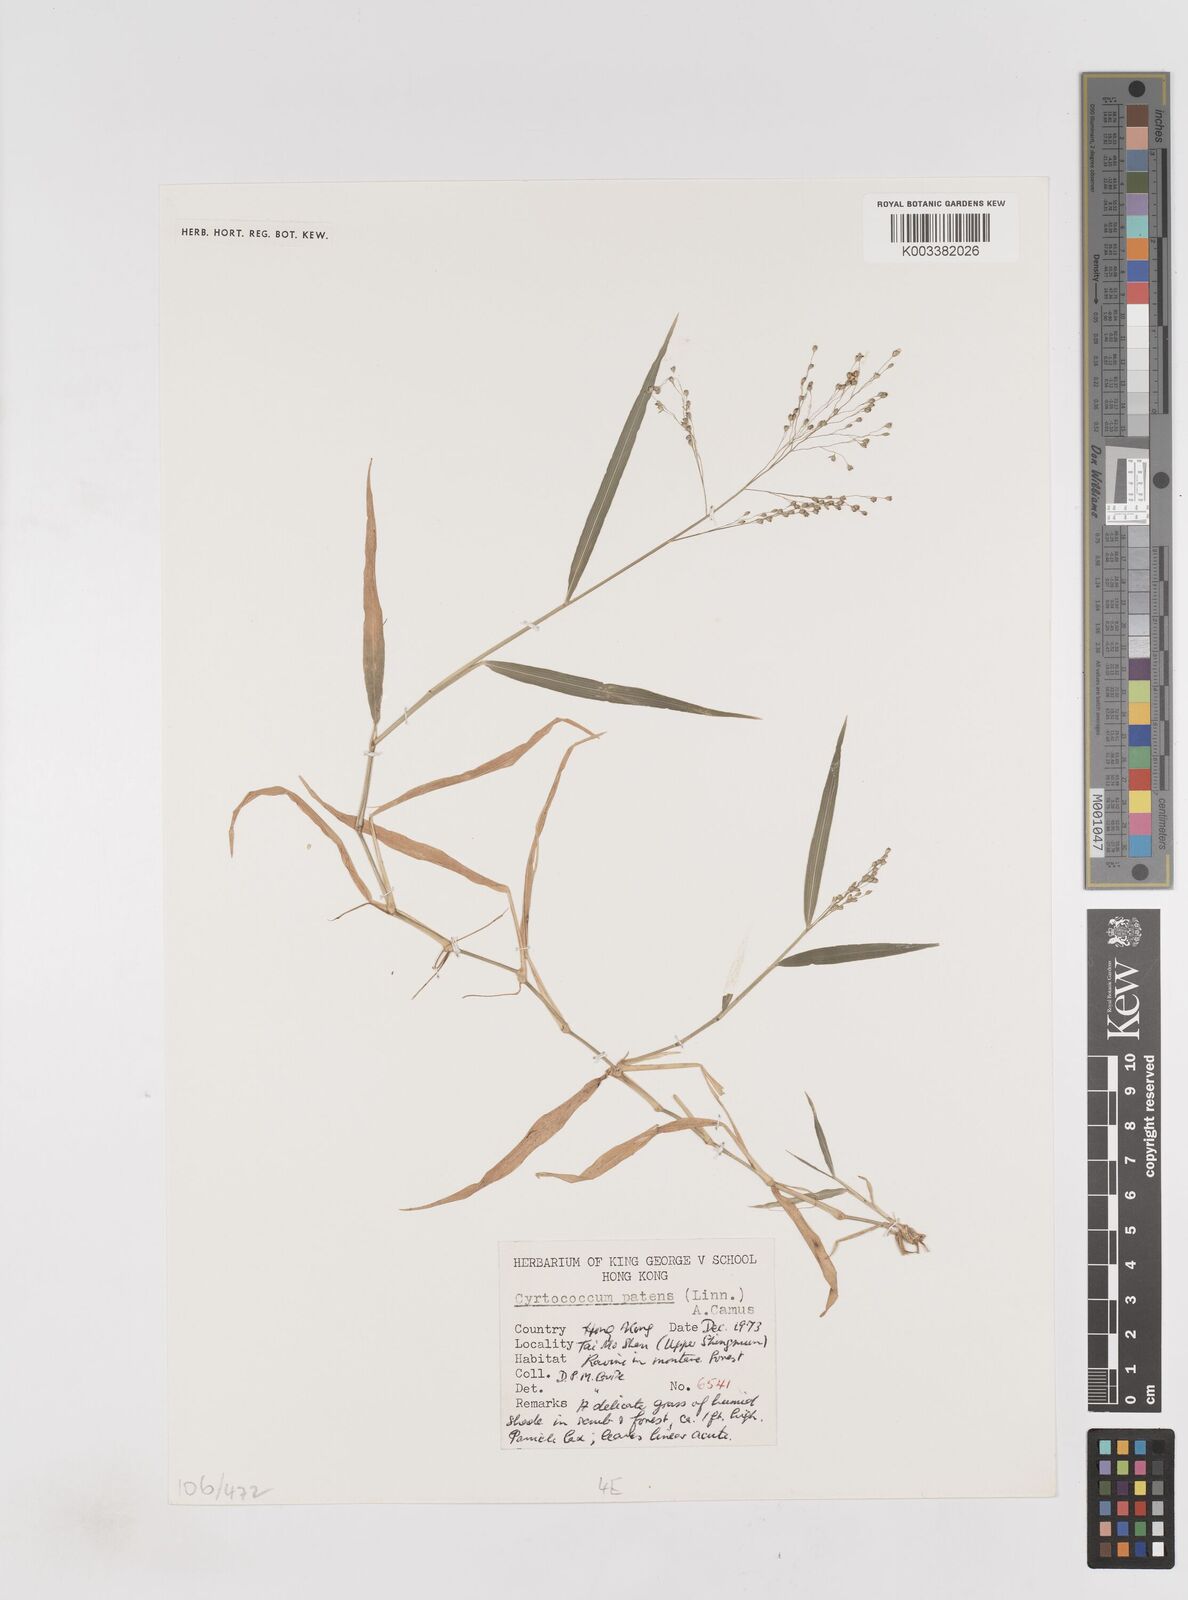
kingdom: Plantae
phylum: Tracheophyta
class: Liliopsida
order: Poales
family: Poaceae
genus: Cyrtococcum
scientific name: Cyrtococcum accrescens
